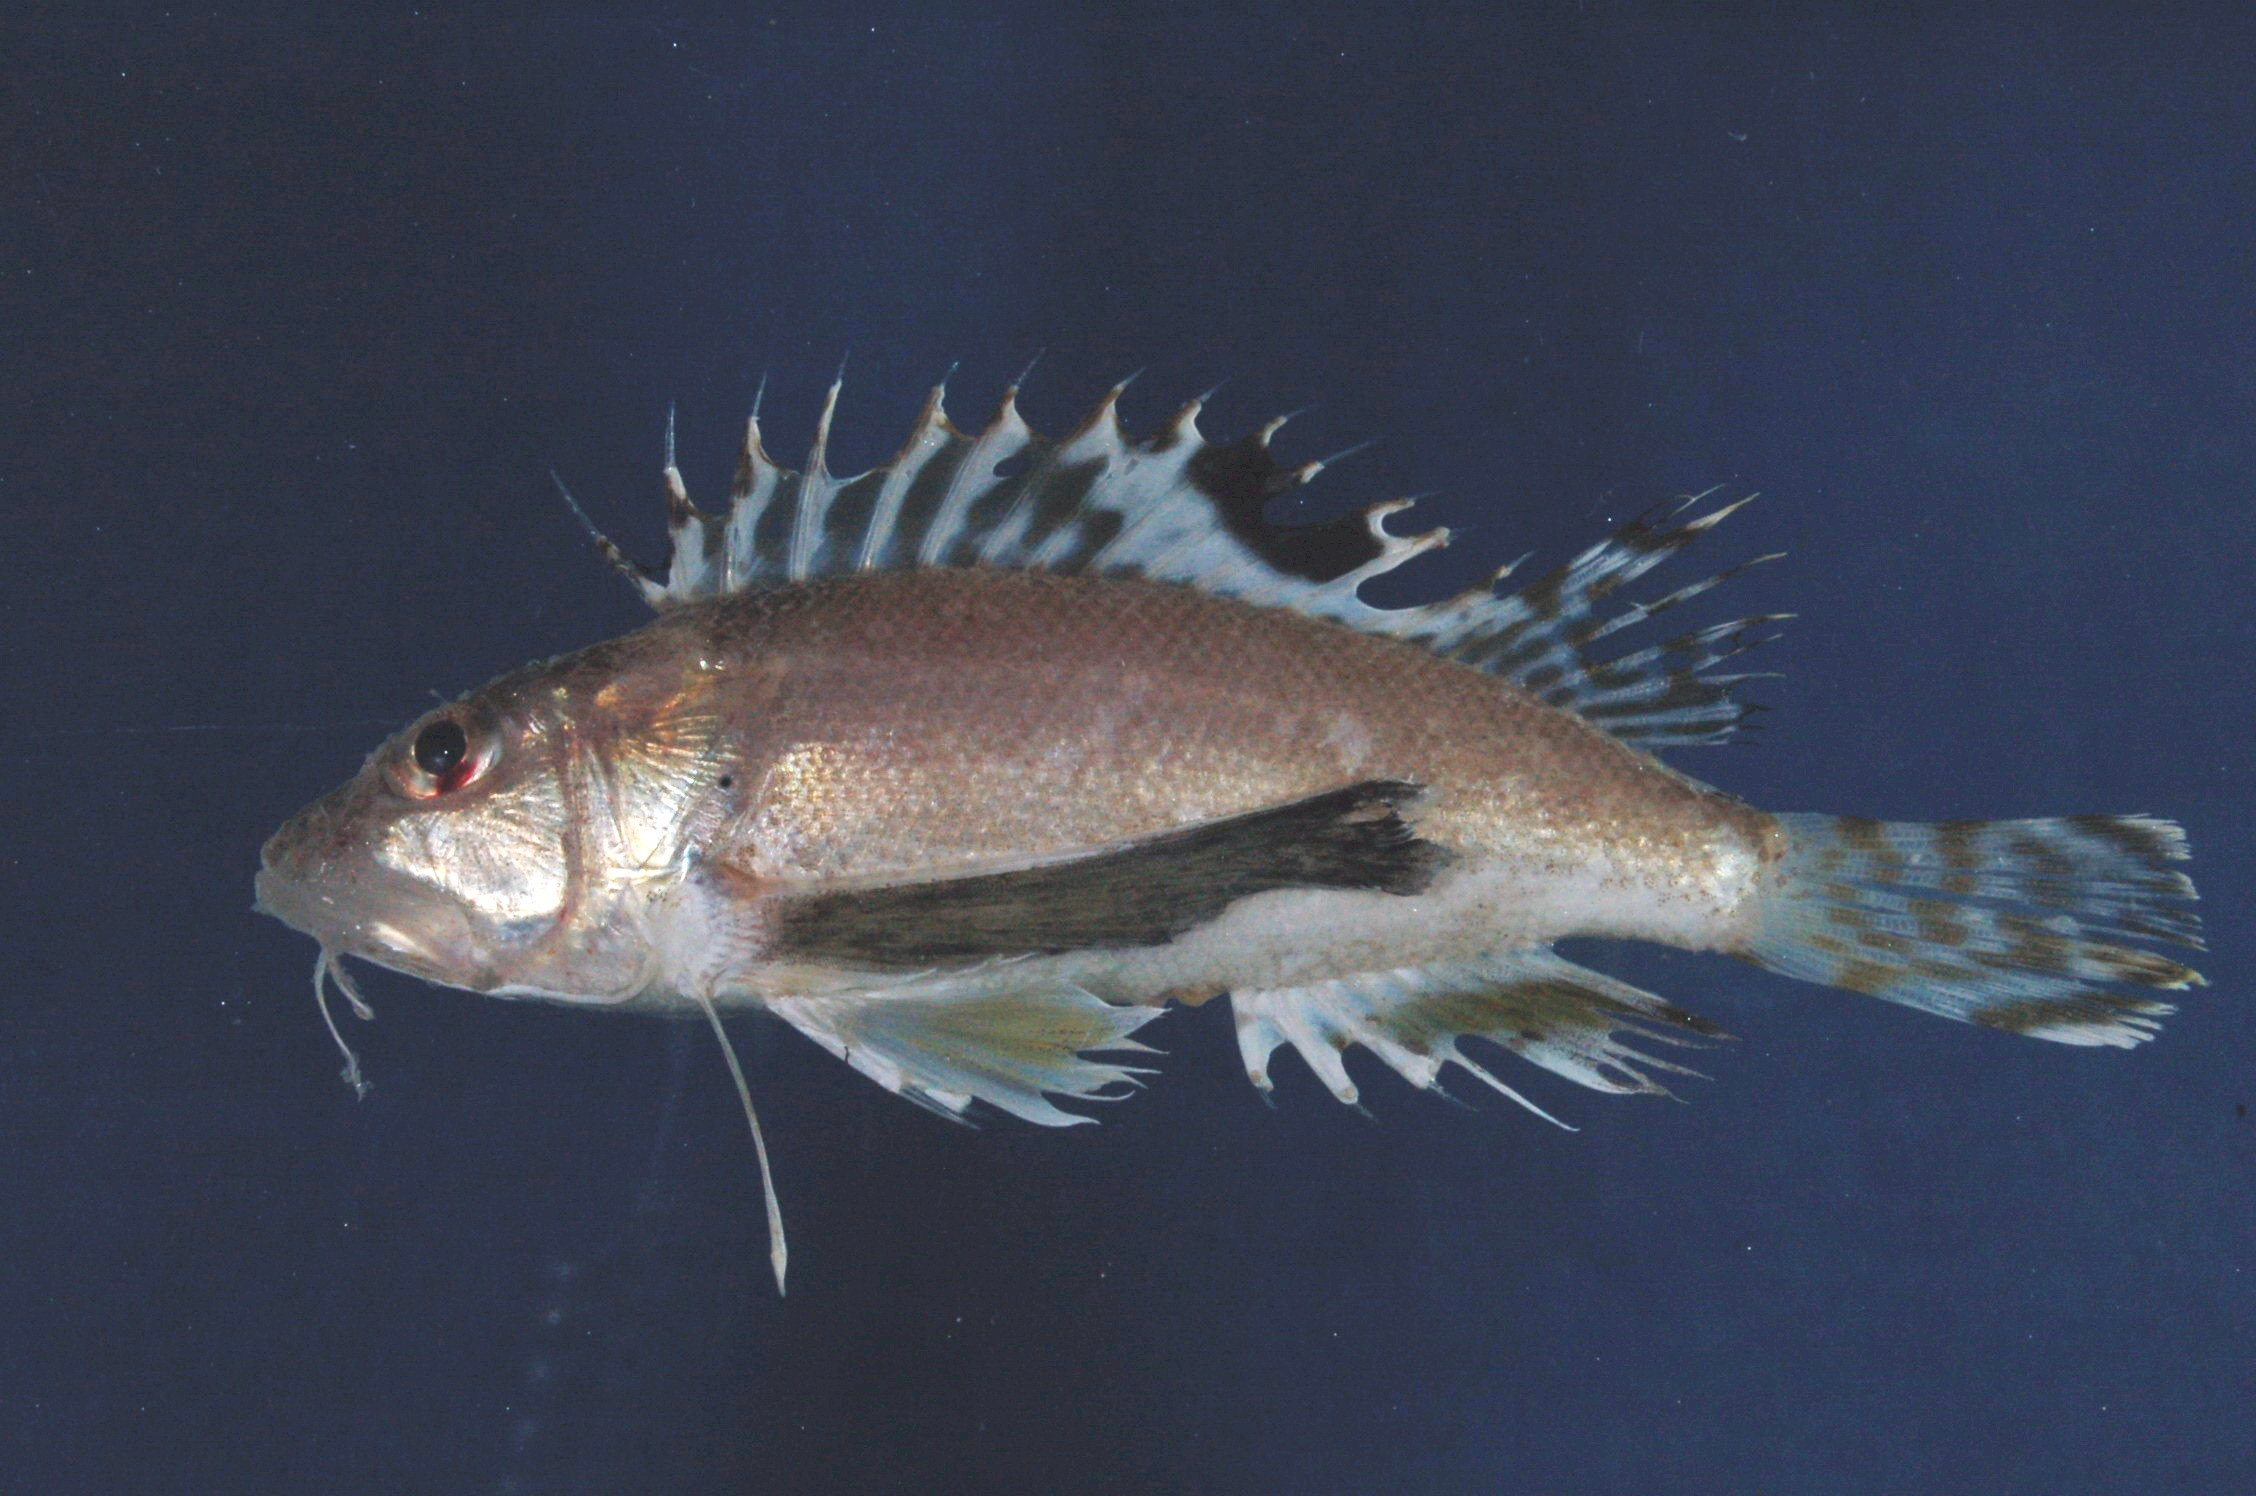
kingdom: Animalia
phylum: Chordata
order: Scorpaeniformes
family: Apistidae
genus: Apistus
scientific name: Apistus carinatus
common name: Ocellated waspfish
